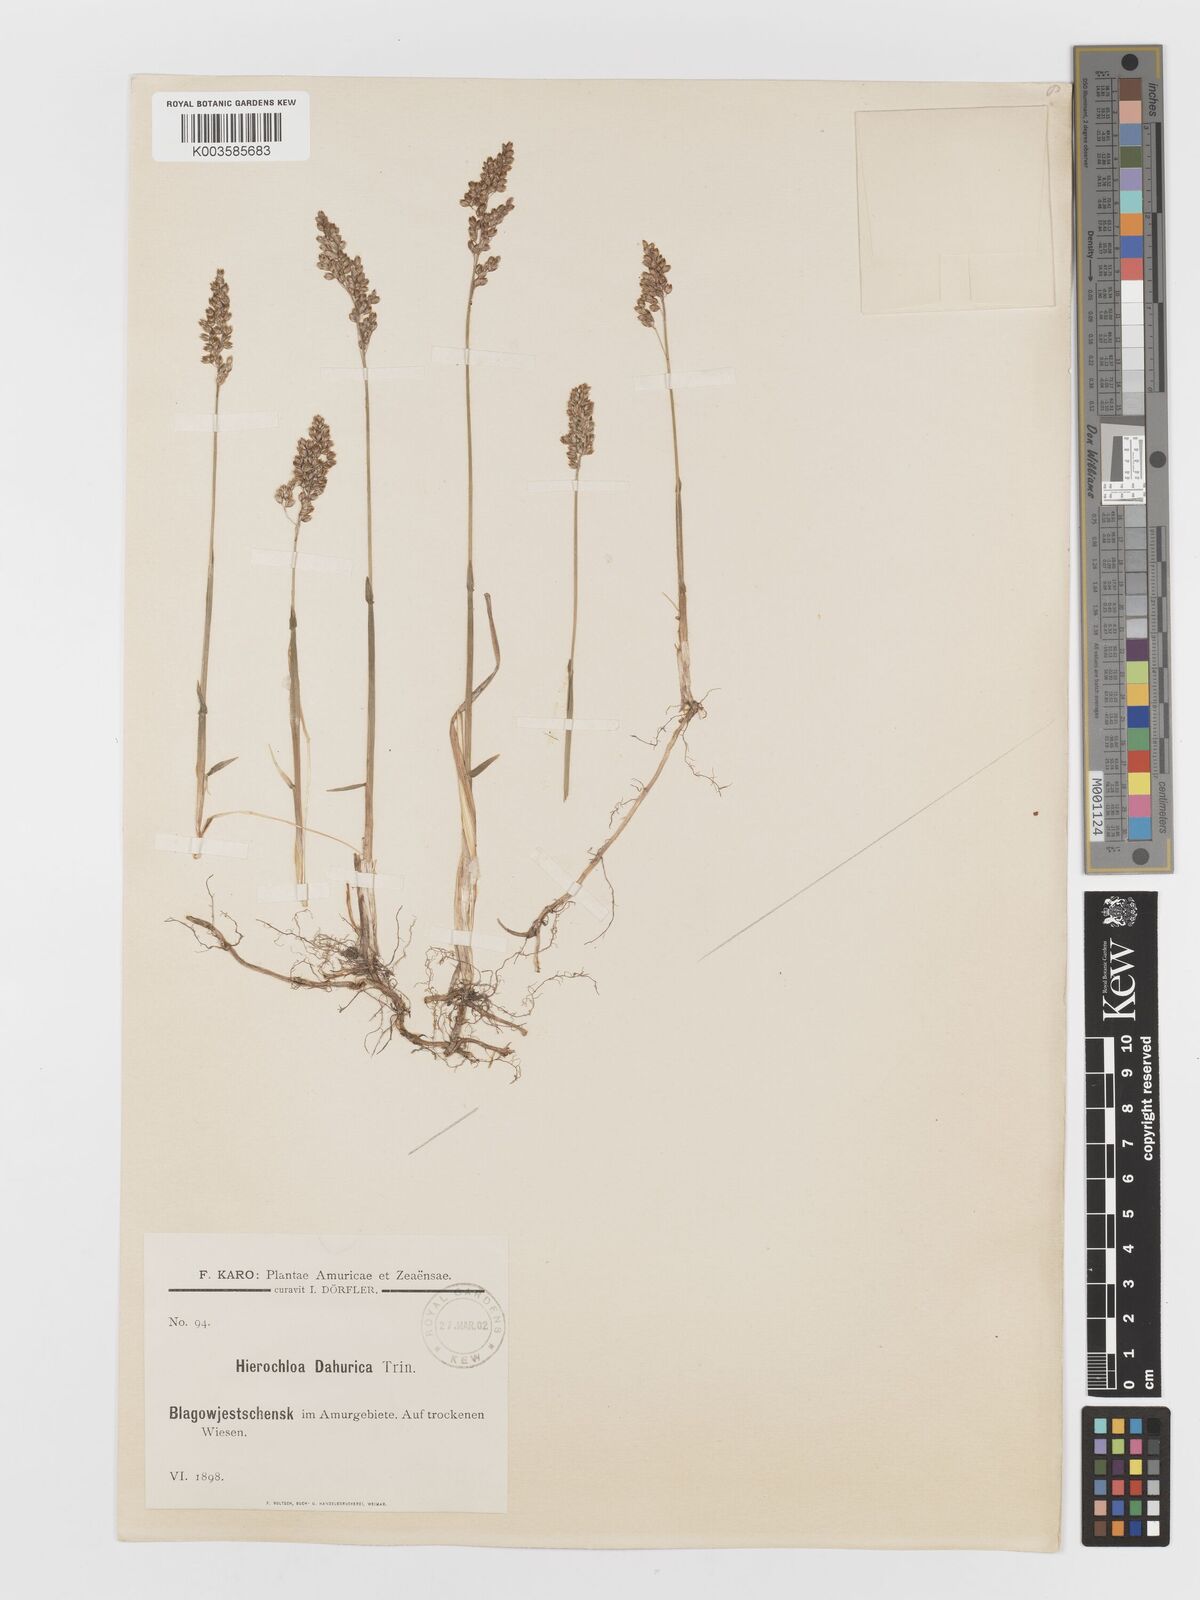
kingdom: Plantae
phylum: Tracheophyta
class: Liliopsida
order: Poales
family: Poaceae
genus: Anthoxanthum
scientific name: Anthoxanthum glabrum
